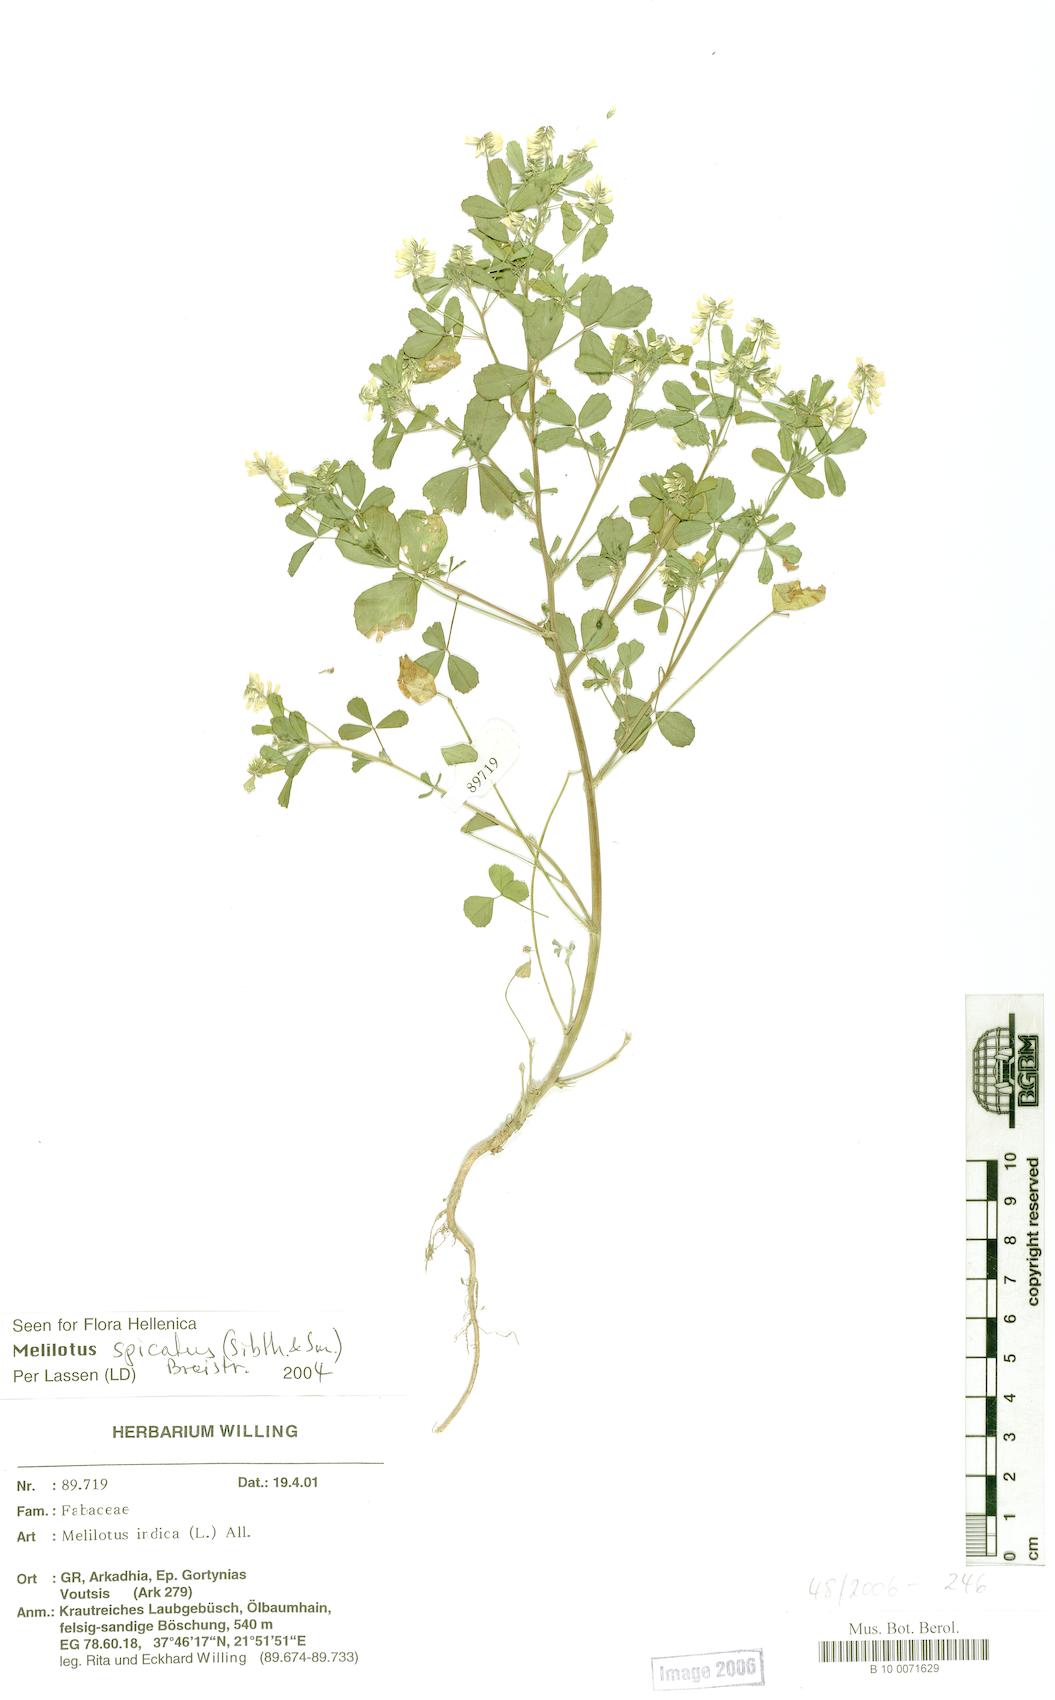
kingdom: Plantae
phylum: Tracheophyta
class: Magnoliopsida
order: Fabales
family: Fabaceae
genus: Melilotus
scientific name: Melilotus indicus
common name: Small melilot
